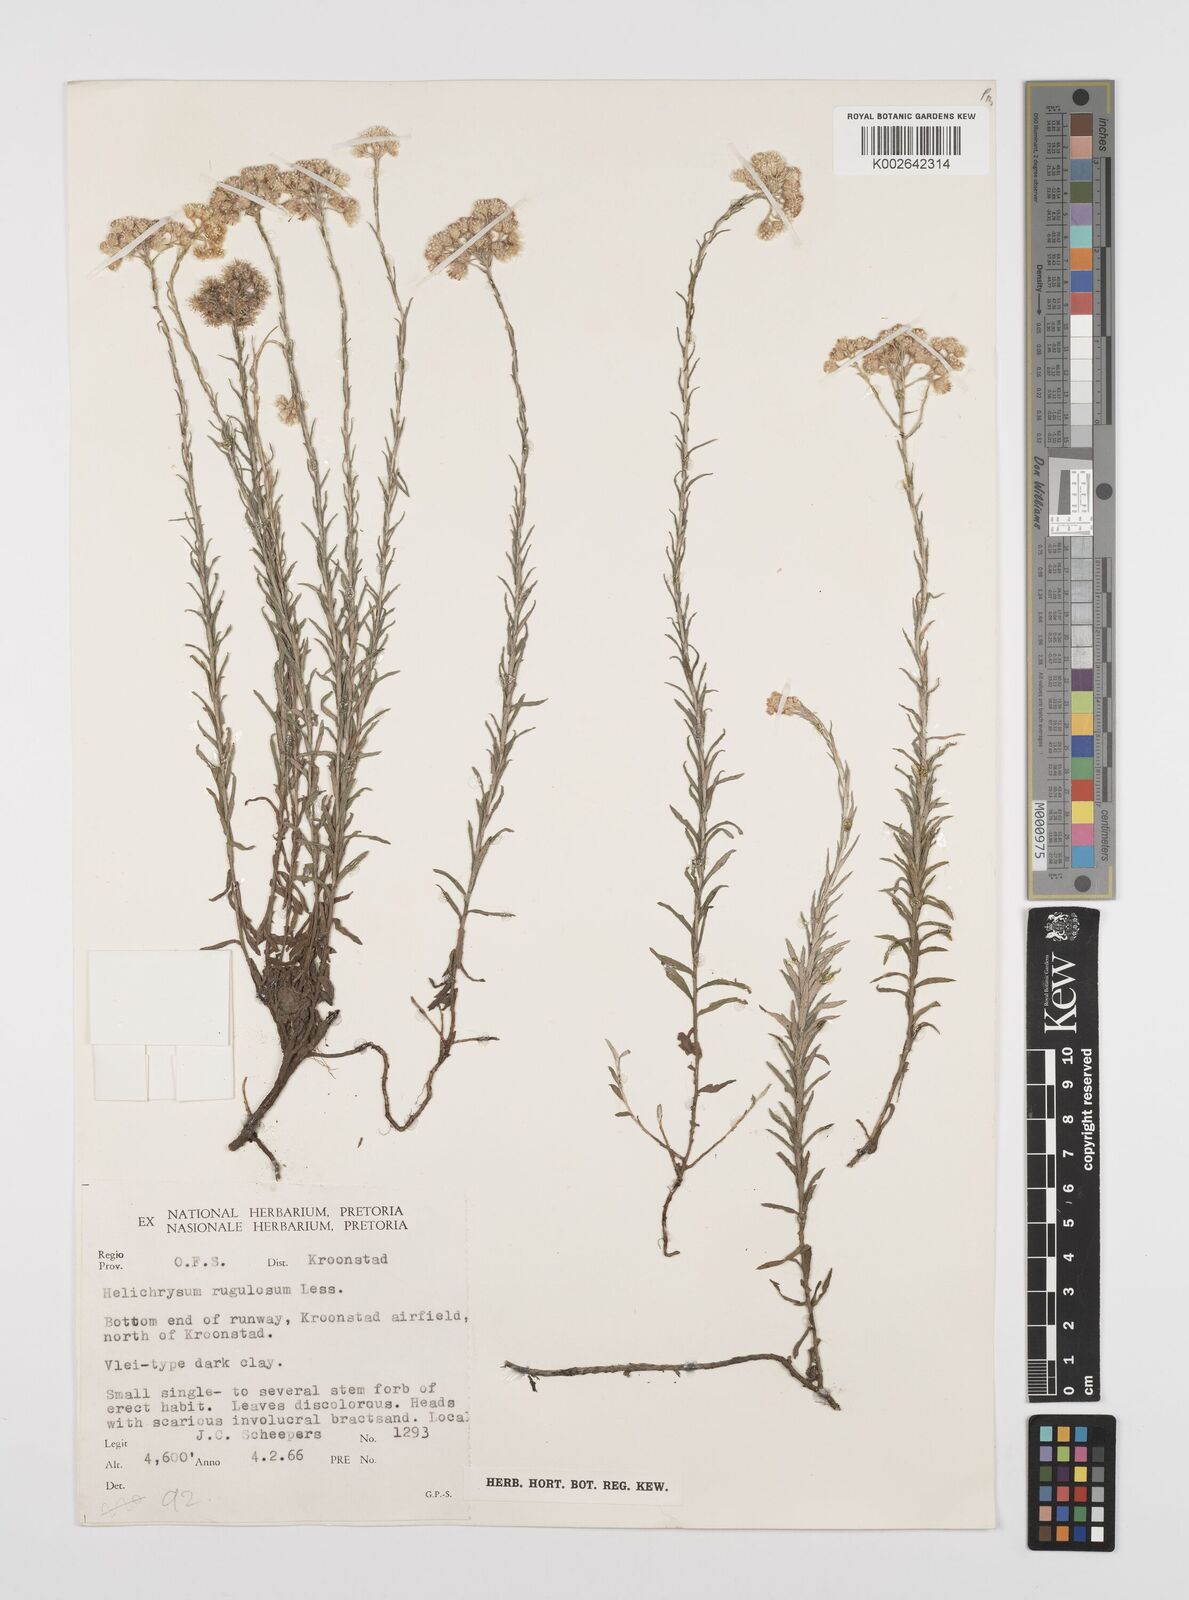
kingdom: Plantae
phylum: Tracheophyta
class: Magnoliopsida
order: Asterales
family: Asteraceae
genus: Helichrysum
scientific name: Helichrysum rugulosum
